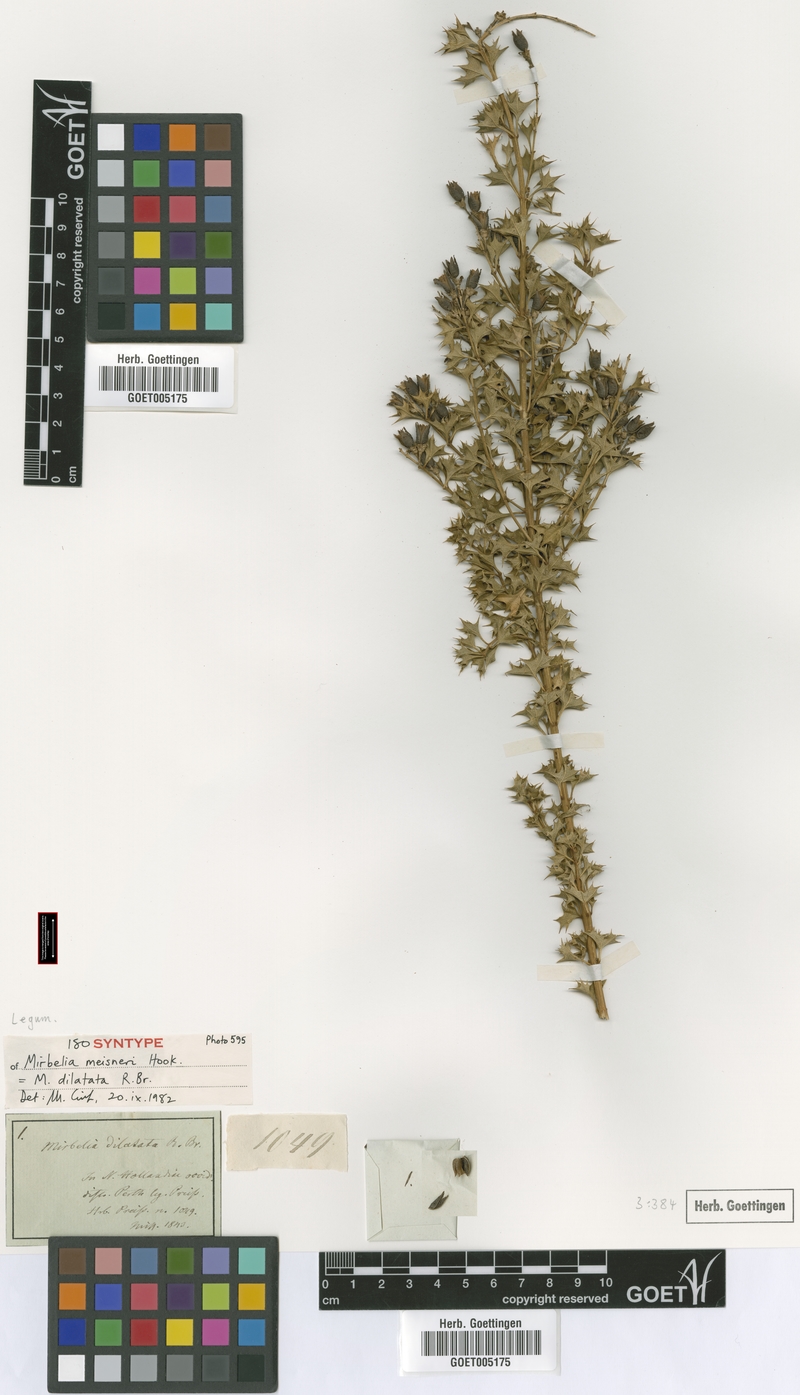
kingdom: Plantae
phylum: Tracheophyta
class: Magnoliopsida
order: Fabales
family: Fabaceae
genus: Mirbelia
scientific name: Mirbelia dilatata
